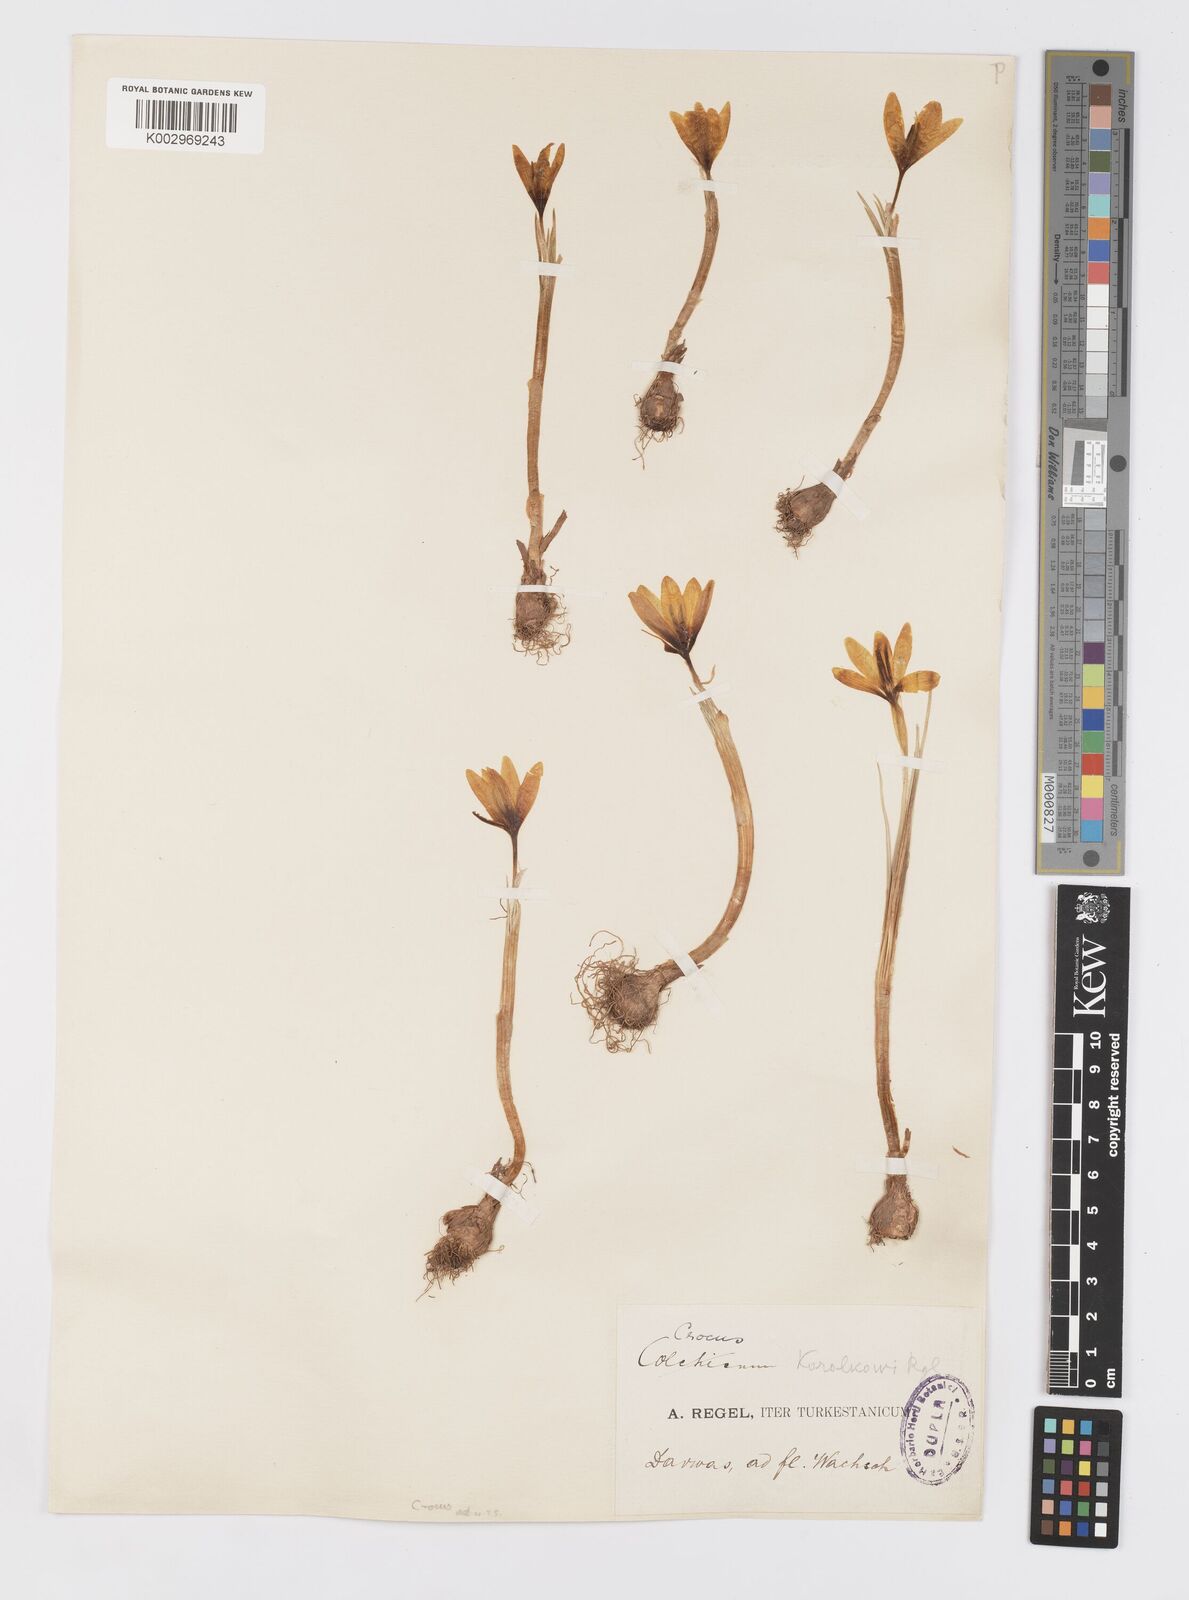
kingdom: Plantae
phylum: Tracheophyta
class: Liliopsida
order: Asparagales
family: Iridaceae
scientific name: Iridaceae
